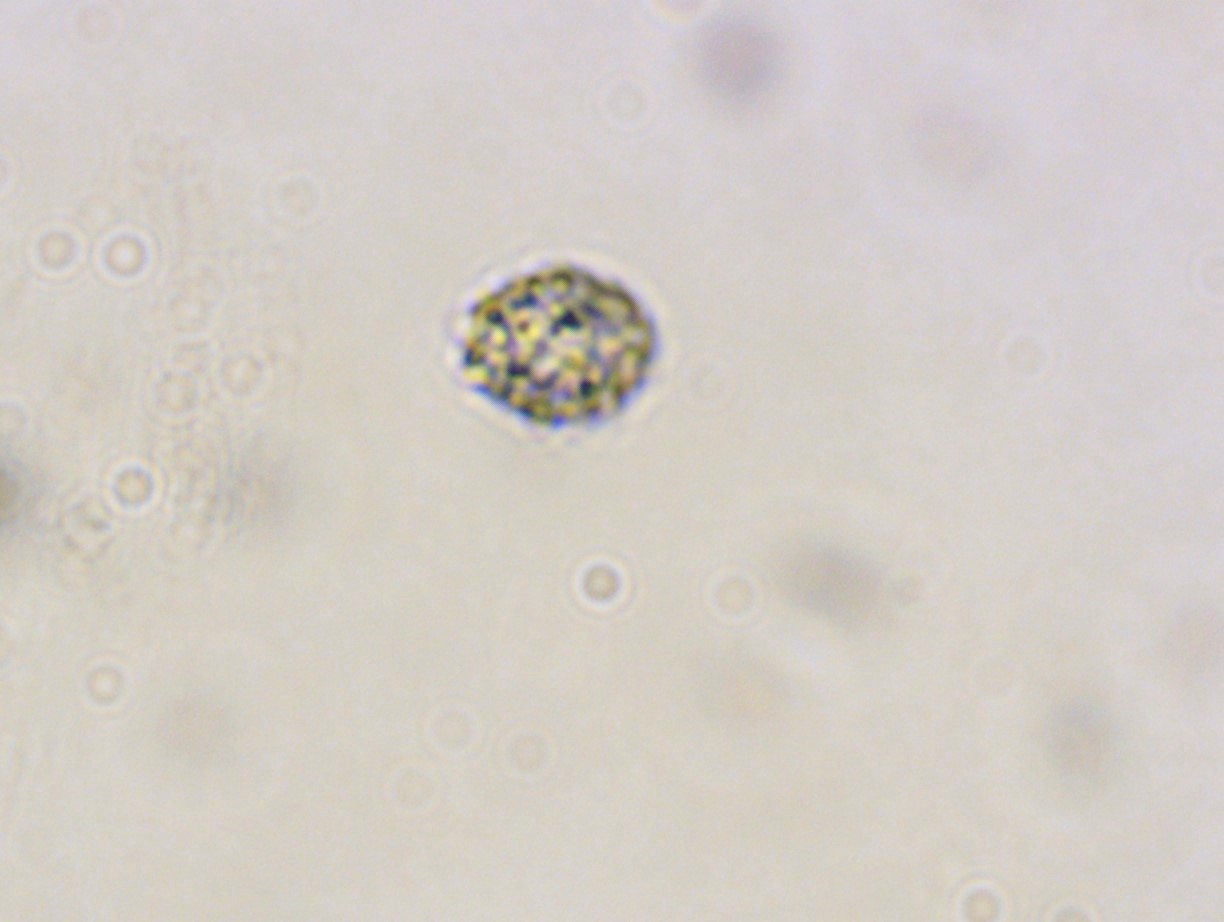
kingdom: Fungi
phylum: Basidiomycota
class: Agaricomycetes
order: Russulales
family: Russulaceae
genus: Russula
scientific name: Russula parazurea
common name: blågrå skørhat
